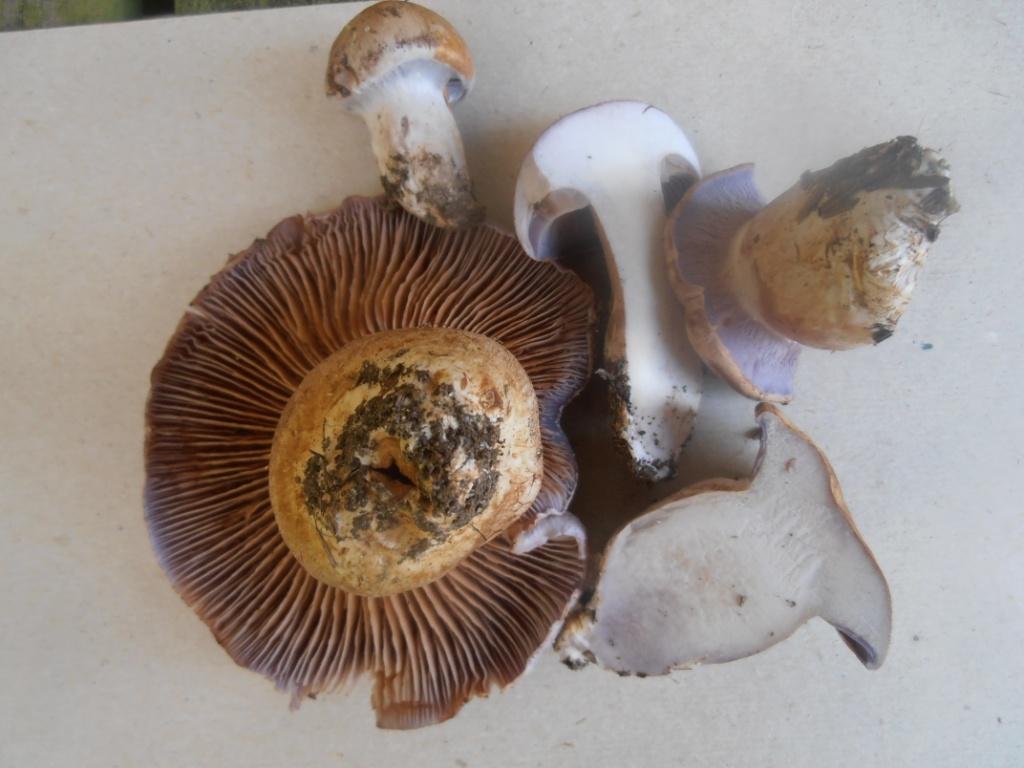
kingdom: Fungi
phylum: Basidiomycota
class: Agaricomycetes
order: Agaricales
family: Cortinariaceae
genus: Phlegmacium
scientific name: Phlegmacium eliae
